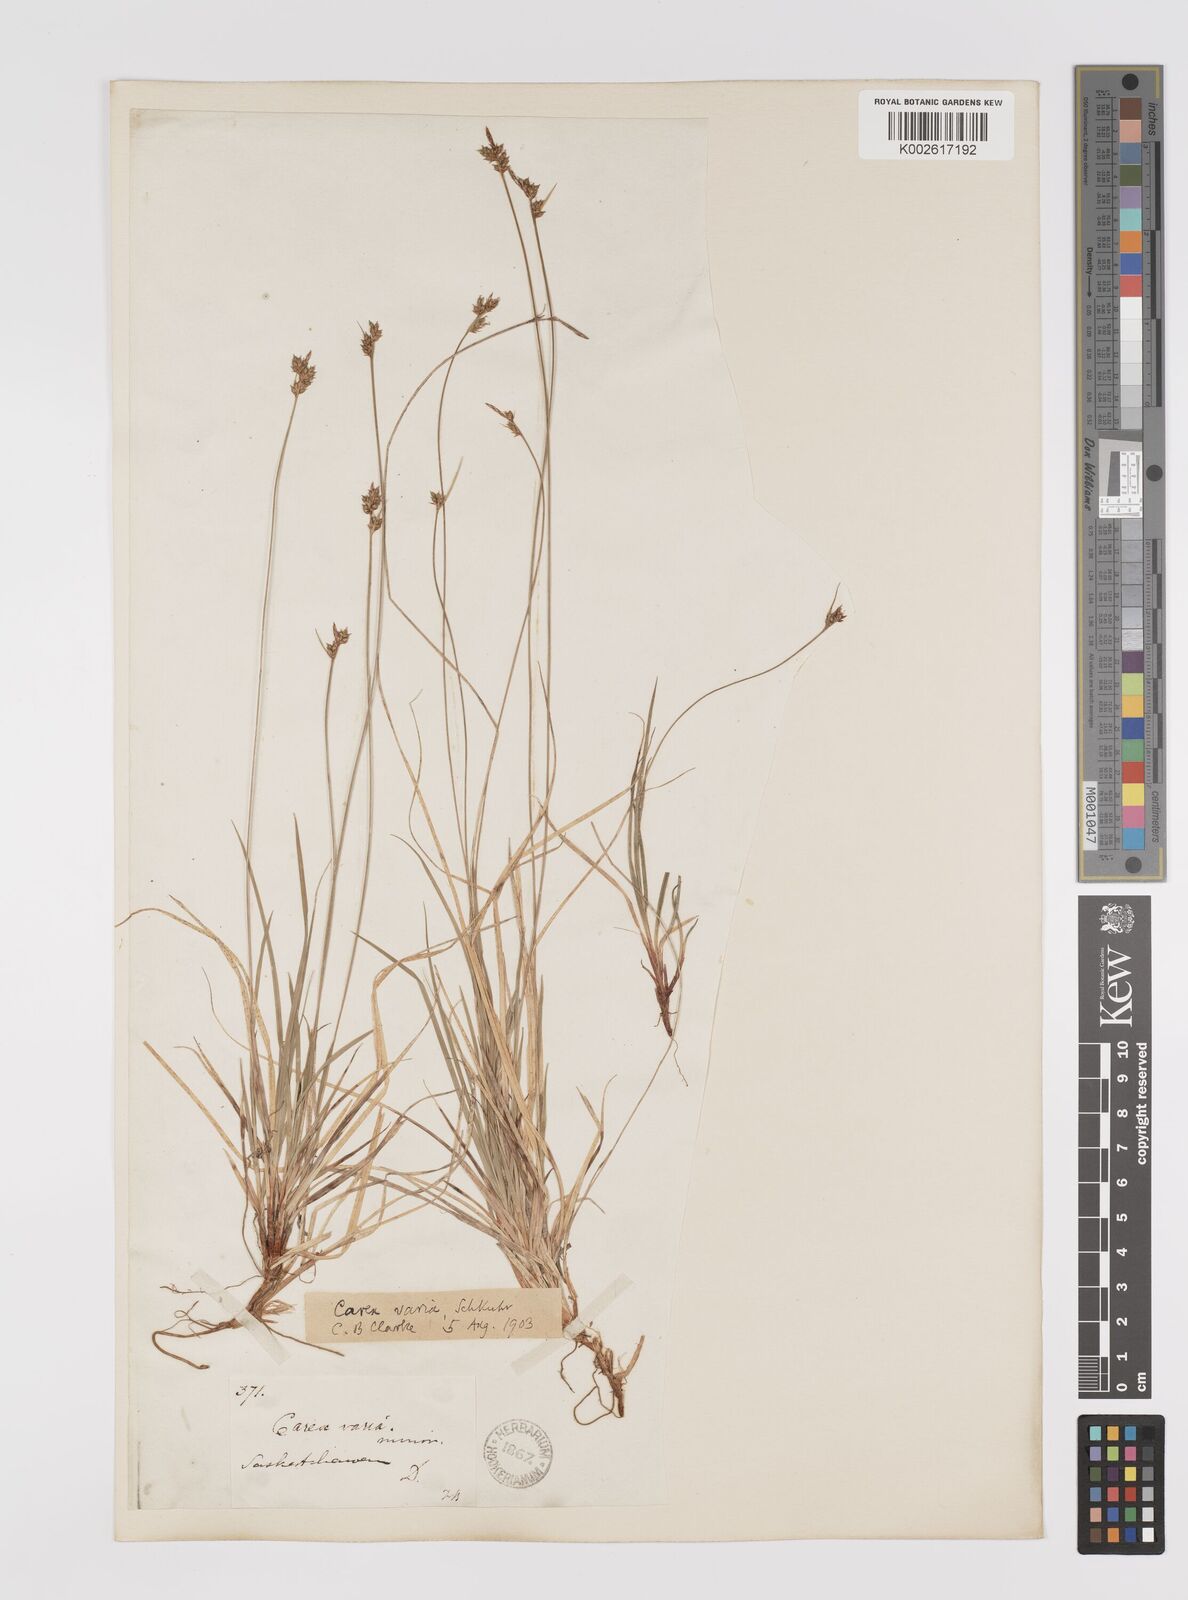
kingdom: Plantae
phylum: Tracheophyta
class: Liliopsida
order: Poales
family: Cyperaceae
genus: Carex
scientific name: Carex albicans
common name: Bellow-beaked sedge
